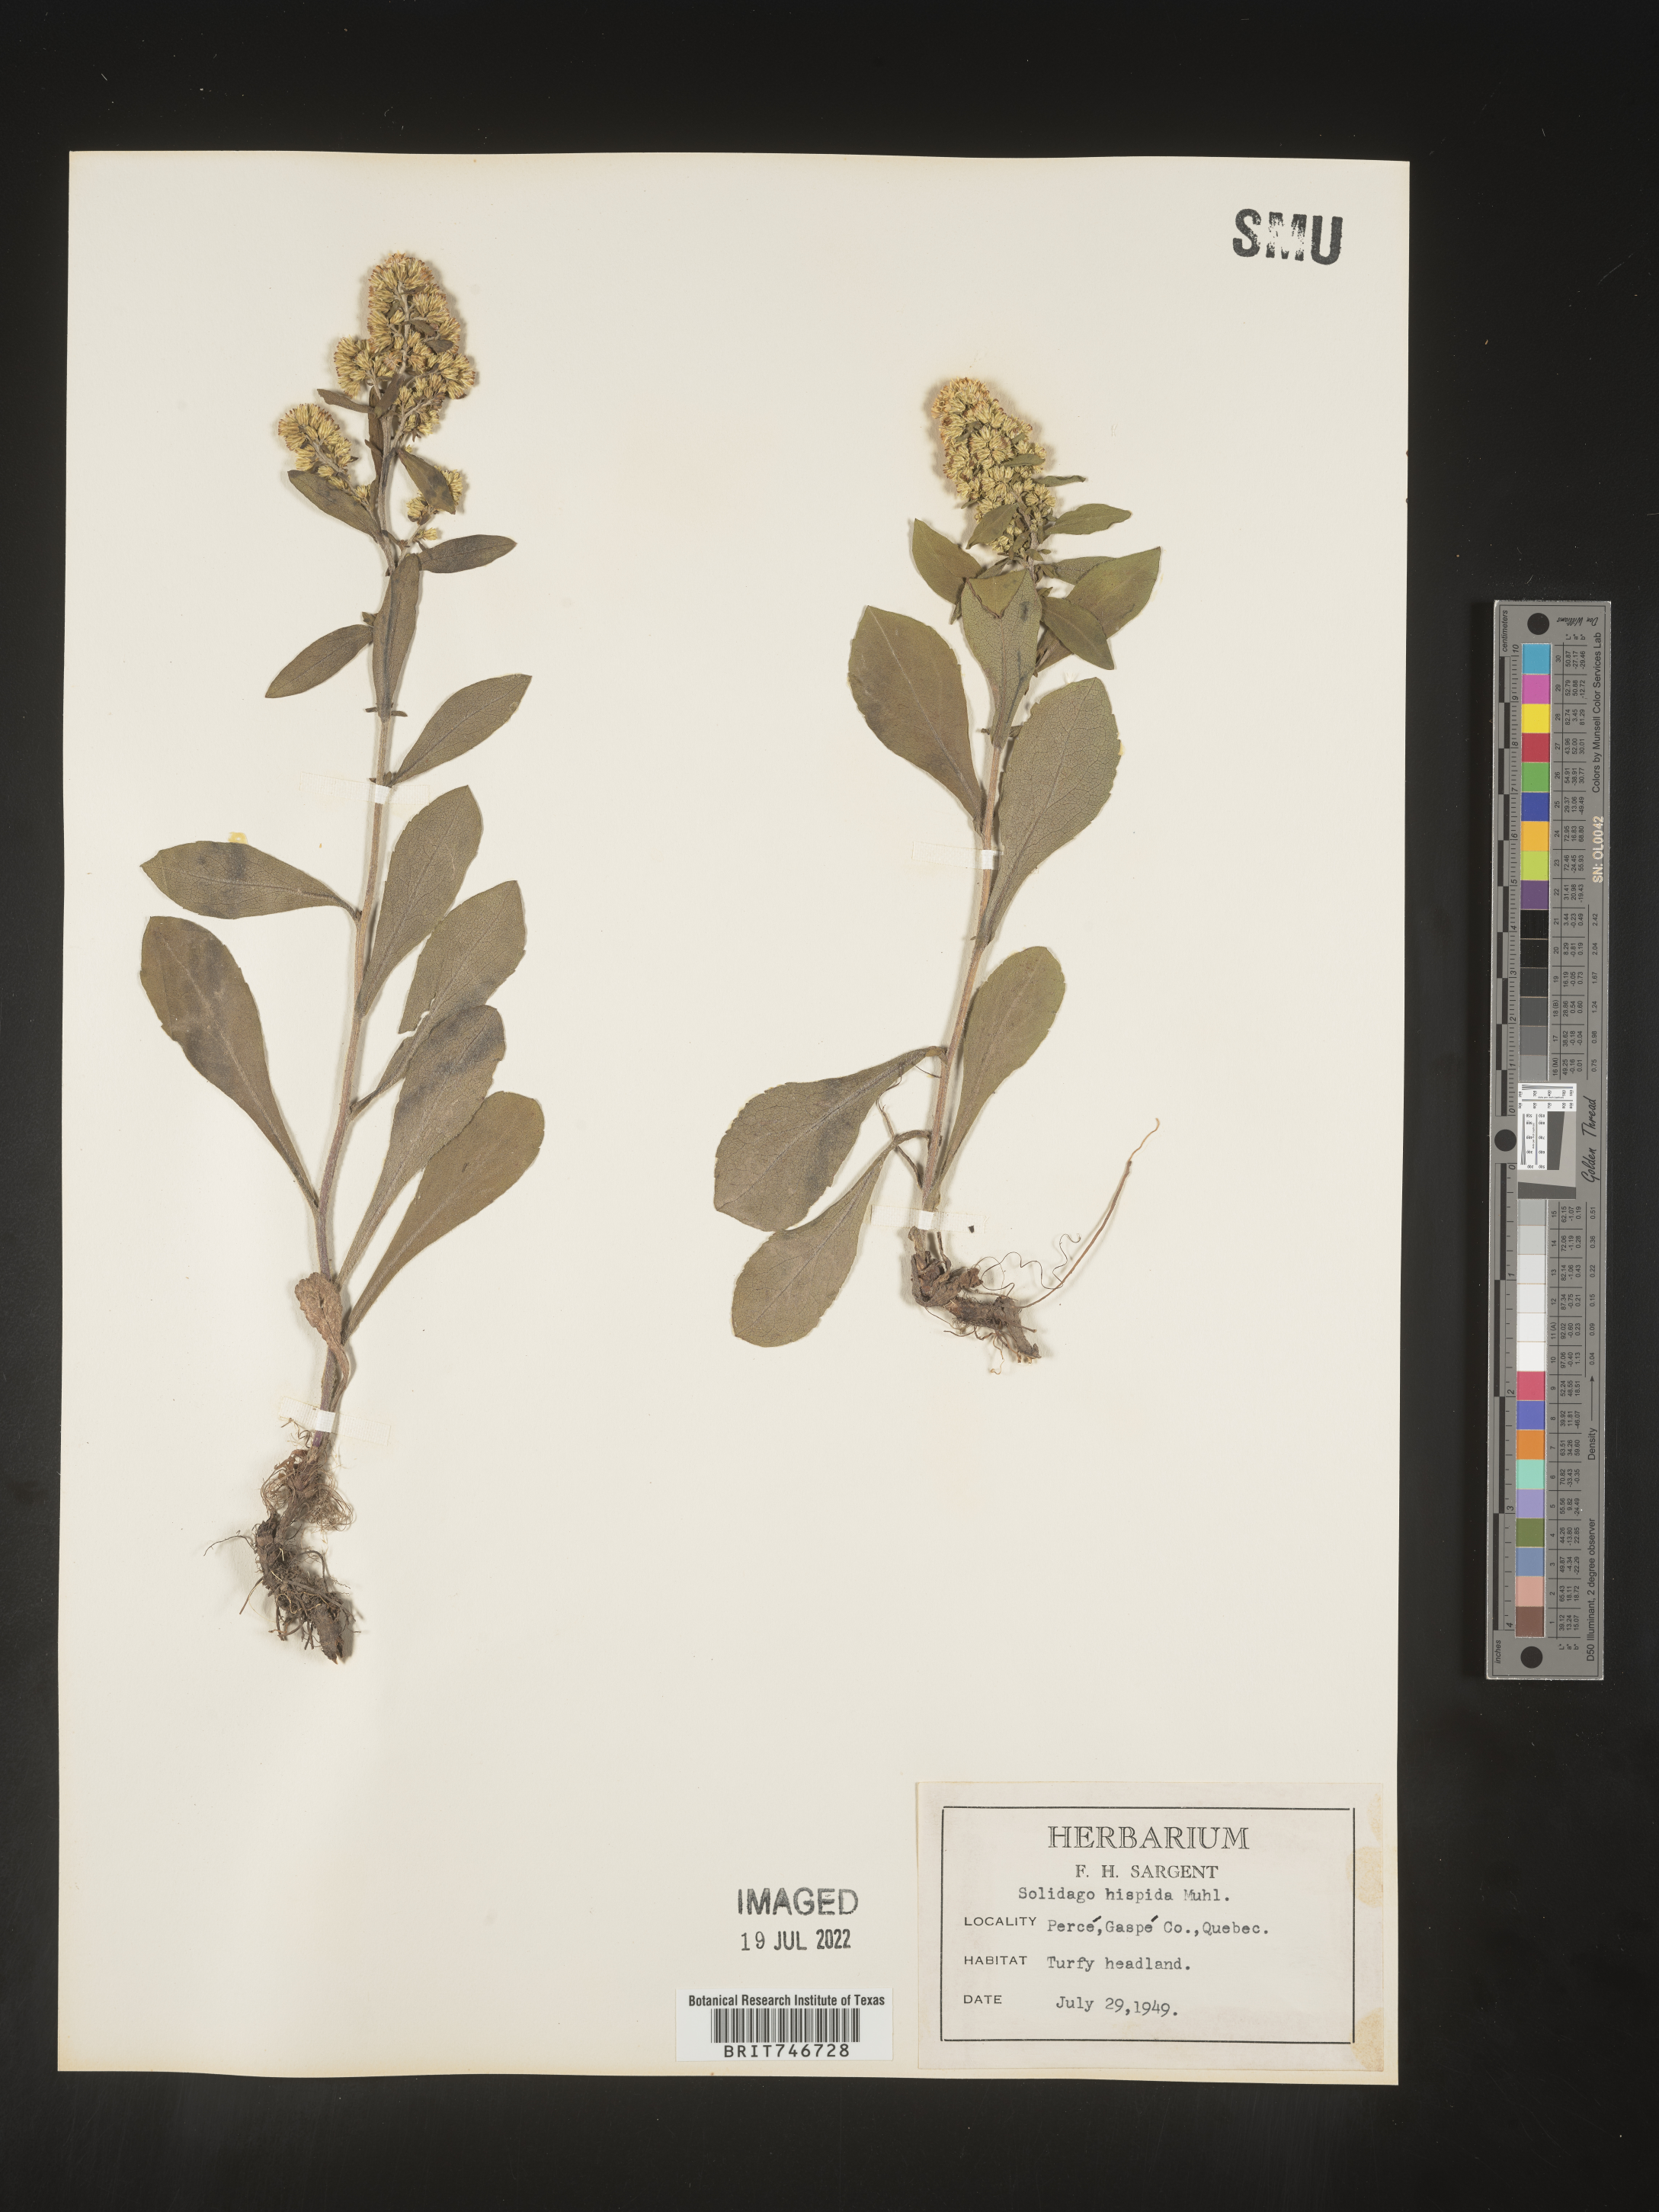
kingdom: Plantae
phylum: Tracheophyta
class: Magnoliopsida
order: Asterales
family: Asteraceae
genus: Solidago
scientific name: Solidago hispida
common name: Hairy goldenrod
